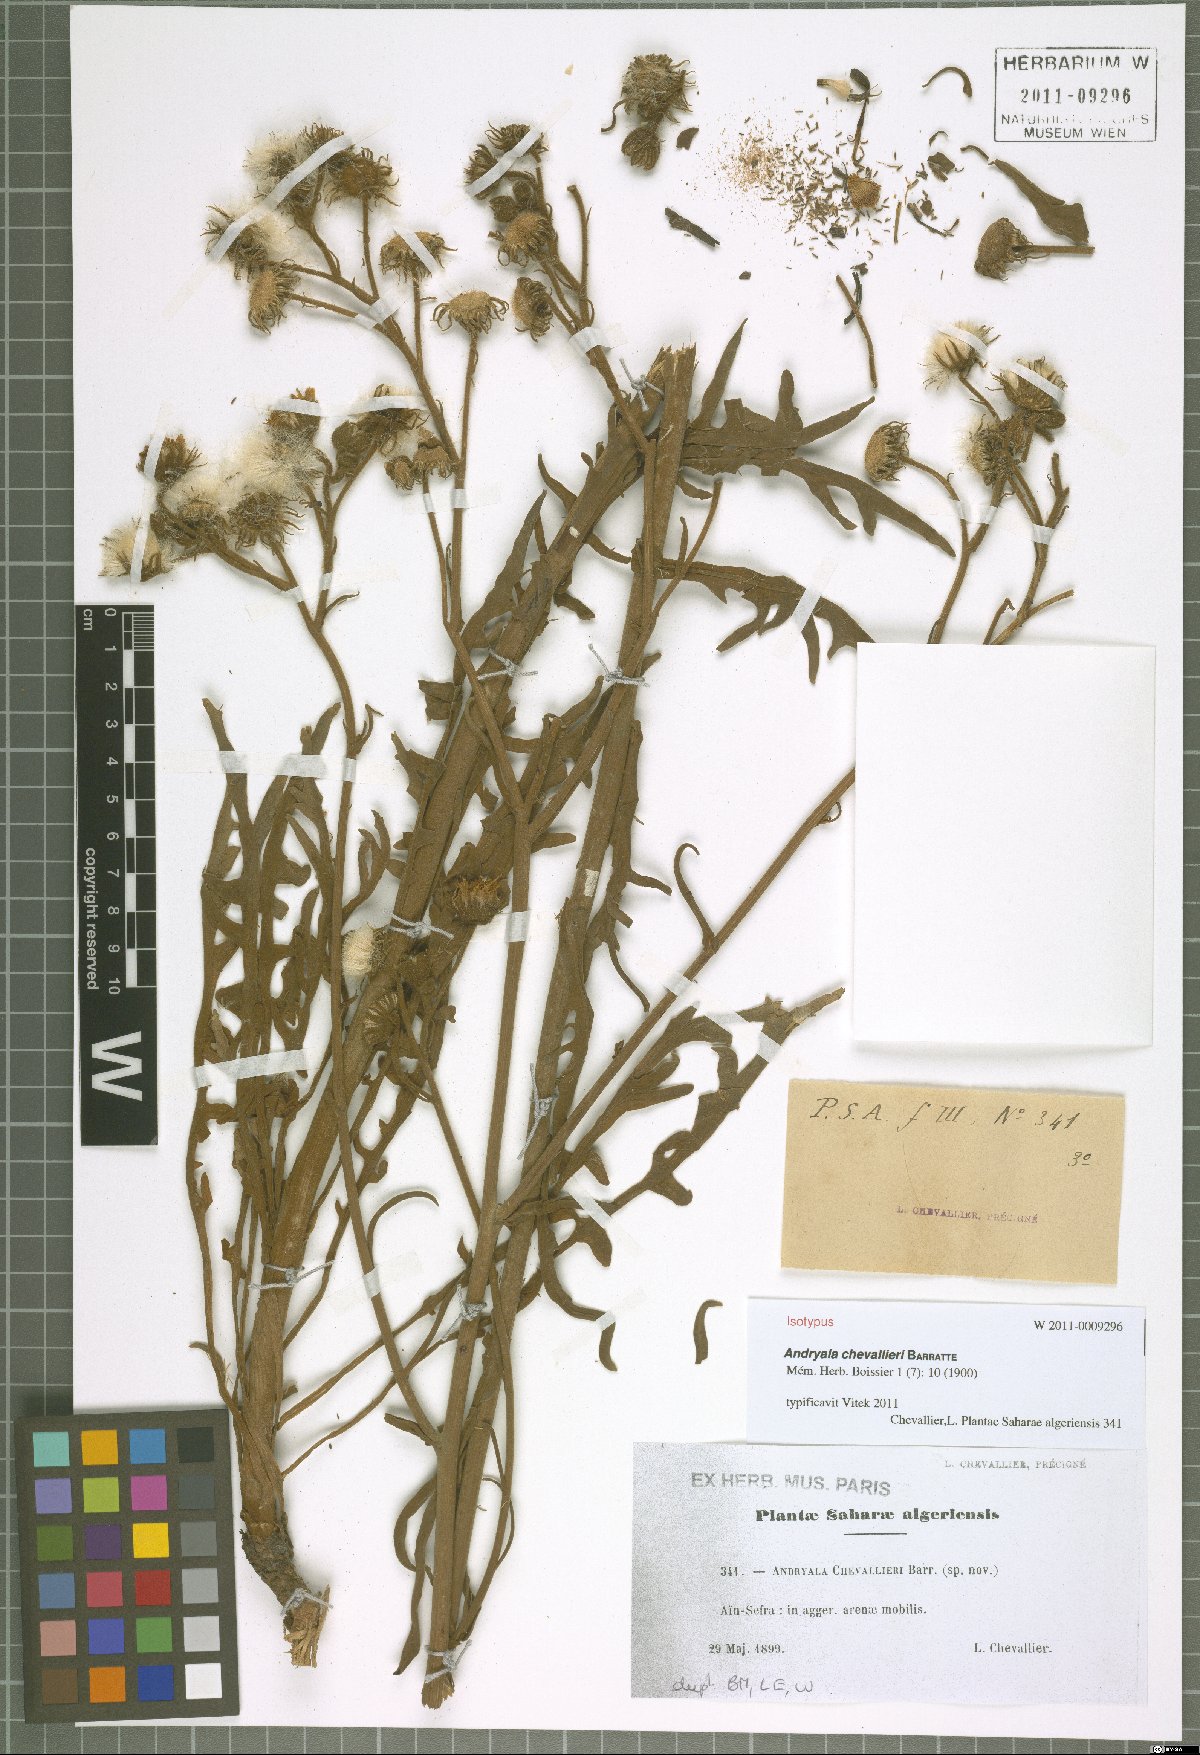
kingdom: Plantae
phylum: Tracheophyta
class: Magnoliopsida
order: Asterales
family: Asteraceae
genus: Andryala
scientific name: Andryala chevallieri
